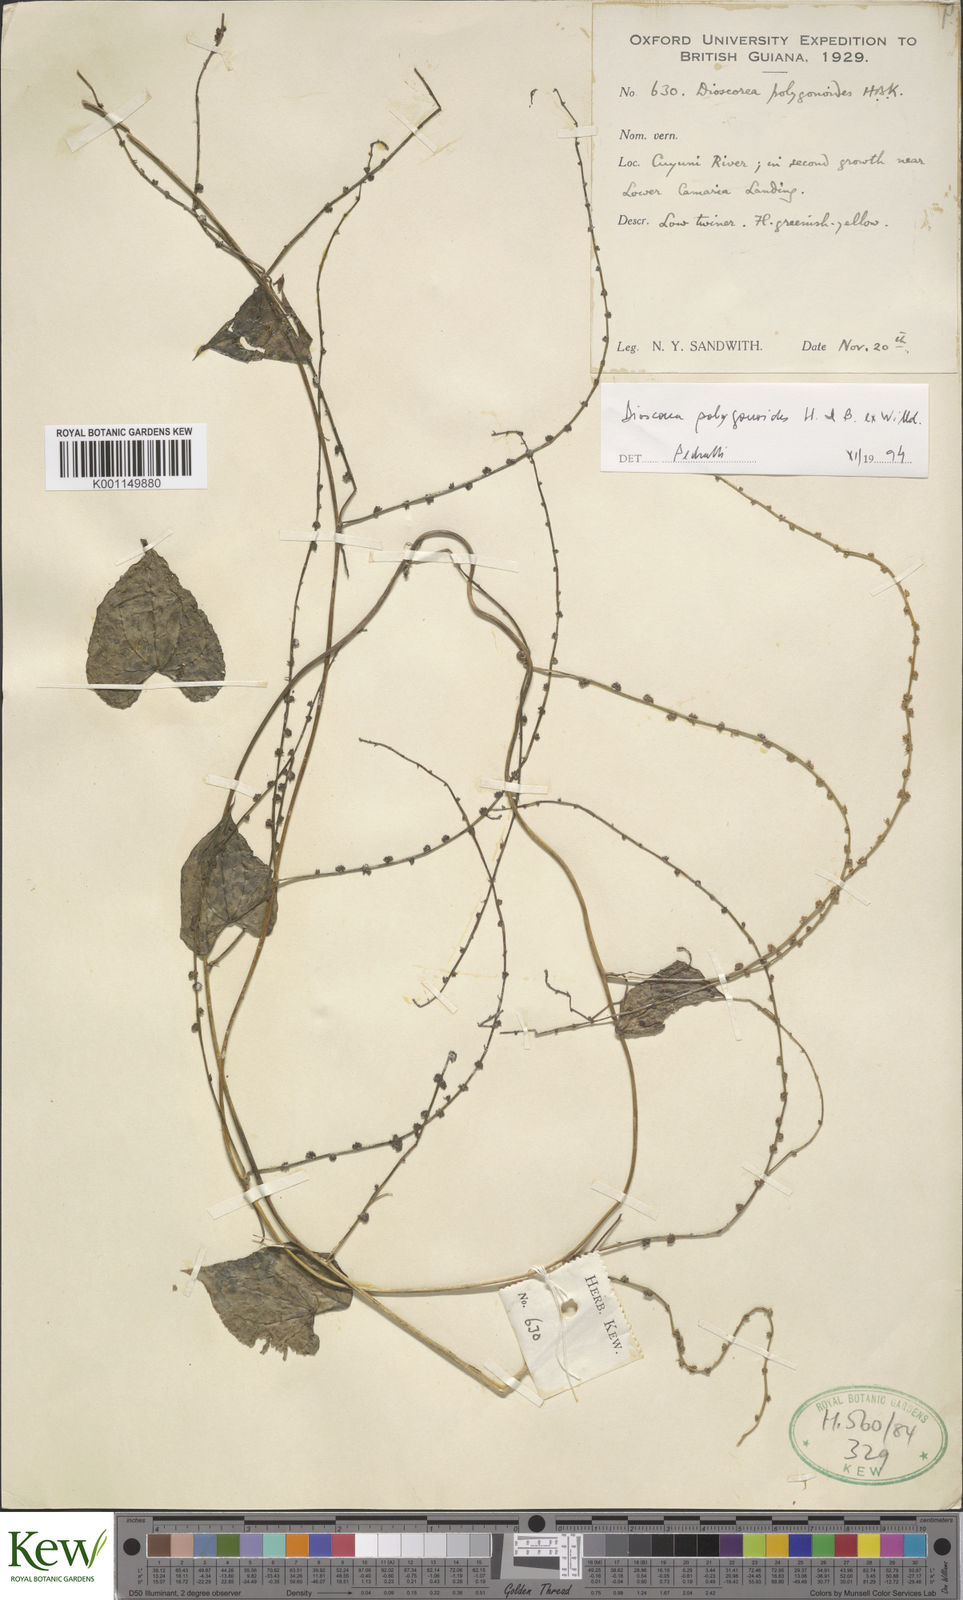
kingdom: Plantae
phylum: Tracheophyta
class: Liliopsida
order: Dioscoreales
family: Dioscoreaceae
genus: Dioscorea
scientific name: Dioscorea polygonoides
